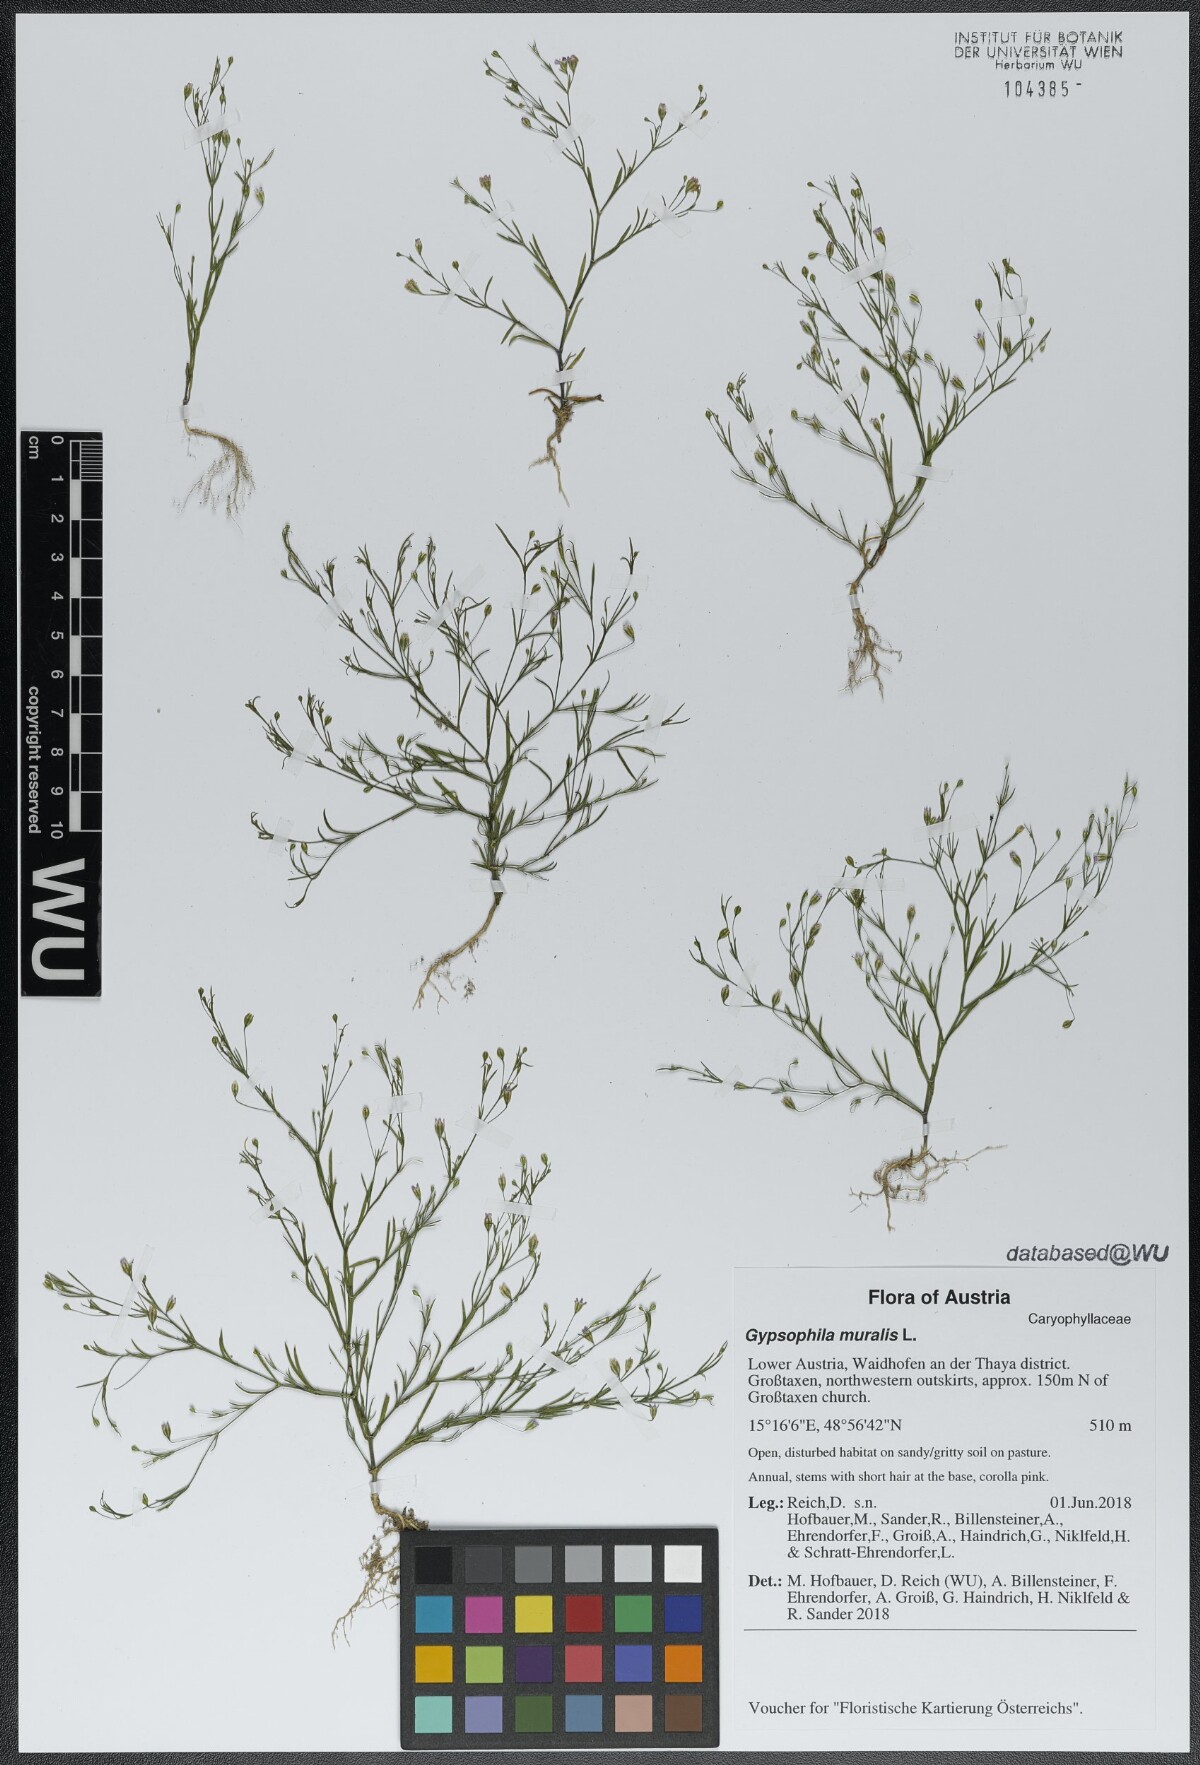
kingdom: Plantae
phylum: Tracheophyta
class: Magnoliopsida
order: Caryophyllales
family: Caryophyllaceae
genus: Psammophiliella
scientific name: Psammophiliella muralis
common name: Cushion baby's-breath
